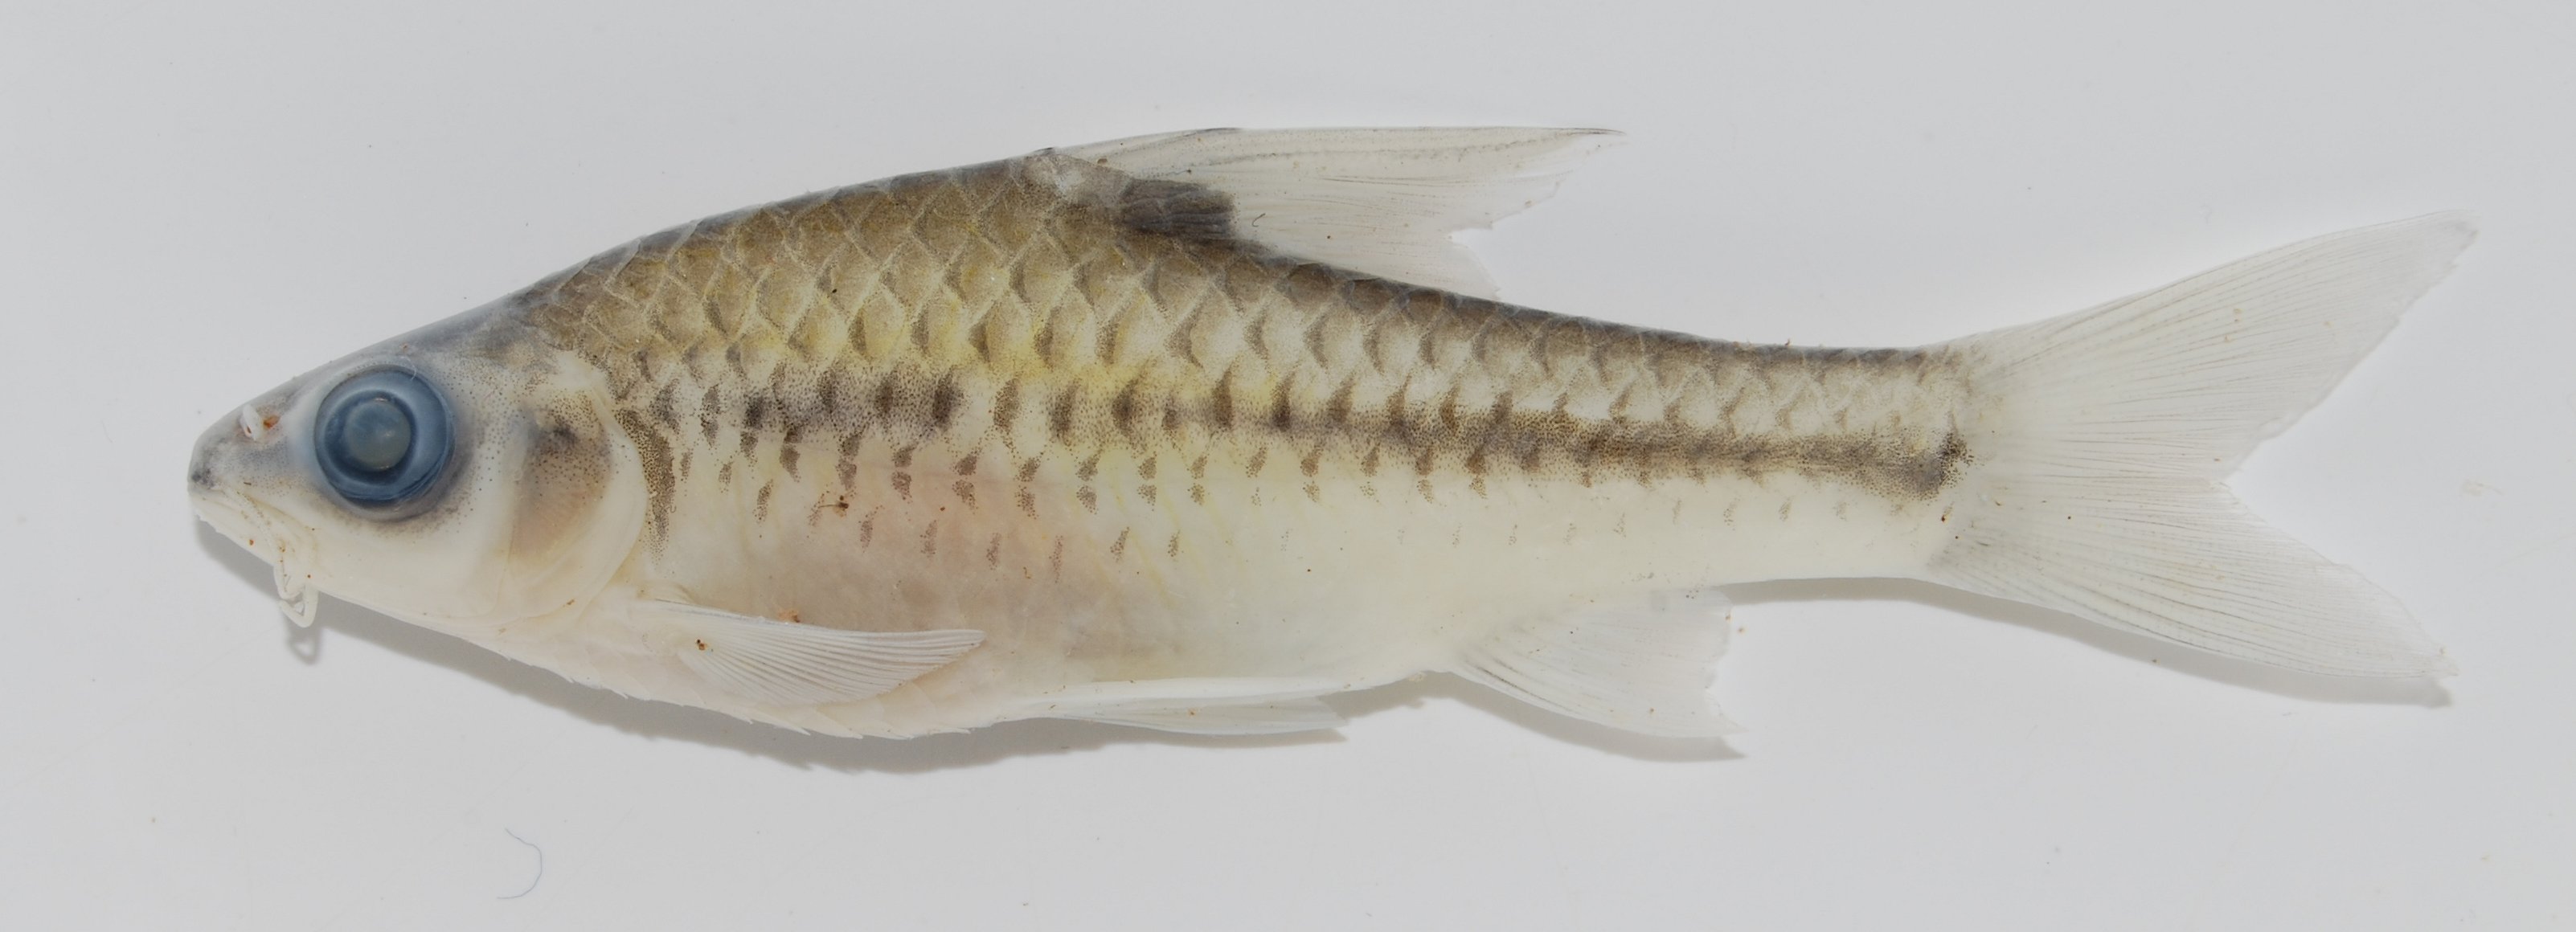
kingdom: Animalia
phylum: Chordata
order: Cypriniformes
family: Cyprinidae
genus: Enteromius
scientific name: Enteromius miolepis
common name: Zigzag barb
